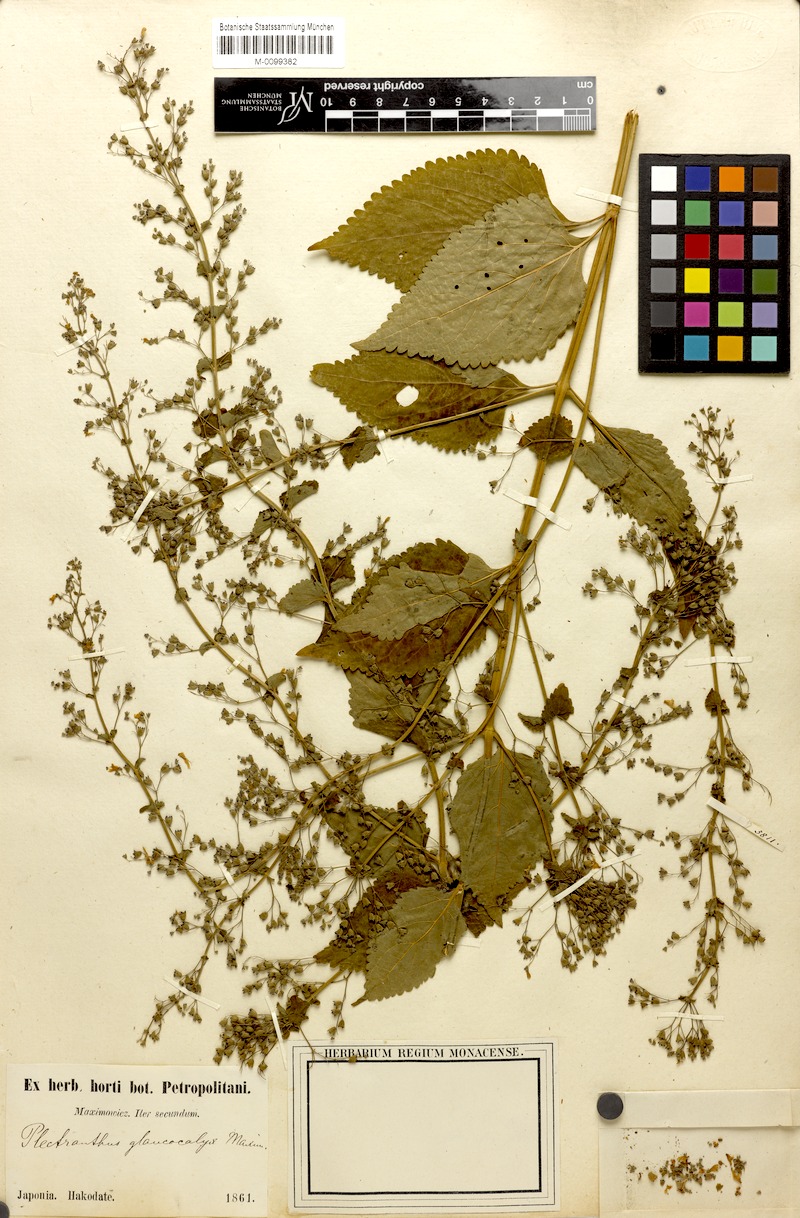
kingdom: Plantae
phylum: Tracheophyta
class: Magnoliopsida
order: Lamiales
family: Lamiaceae
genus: Isodon
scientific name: Isodon japonicus
